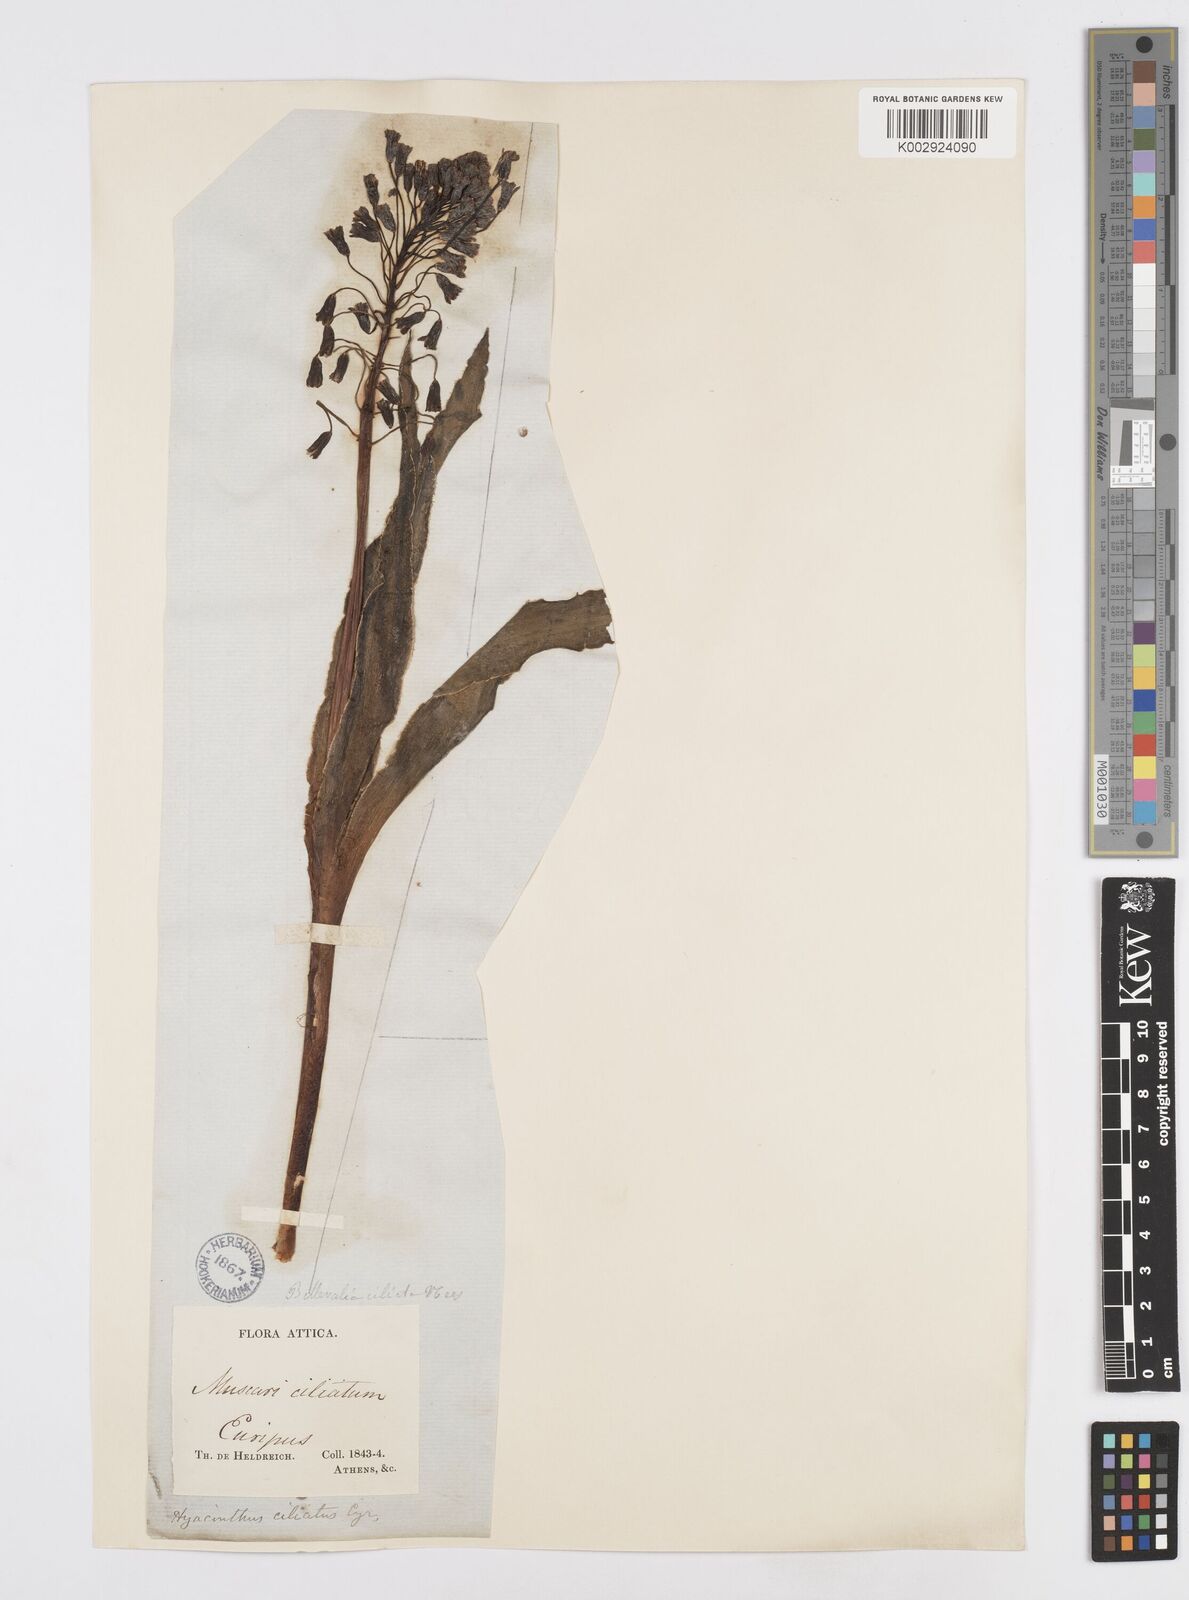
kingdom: Plantae
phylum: Tracheophyta
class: Liliopsida
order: Asparagales
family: Asparagaceae
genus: Bellevalia
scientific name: Bellevalia ciliata
